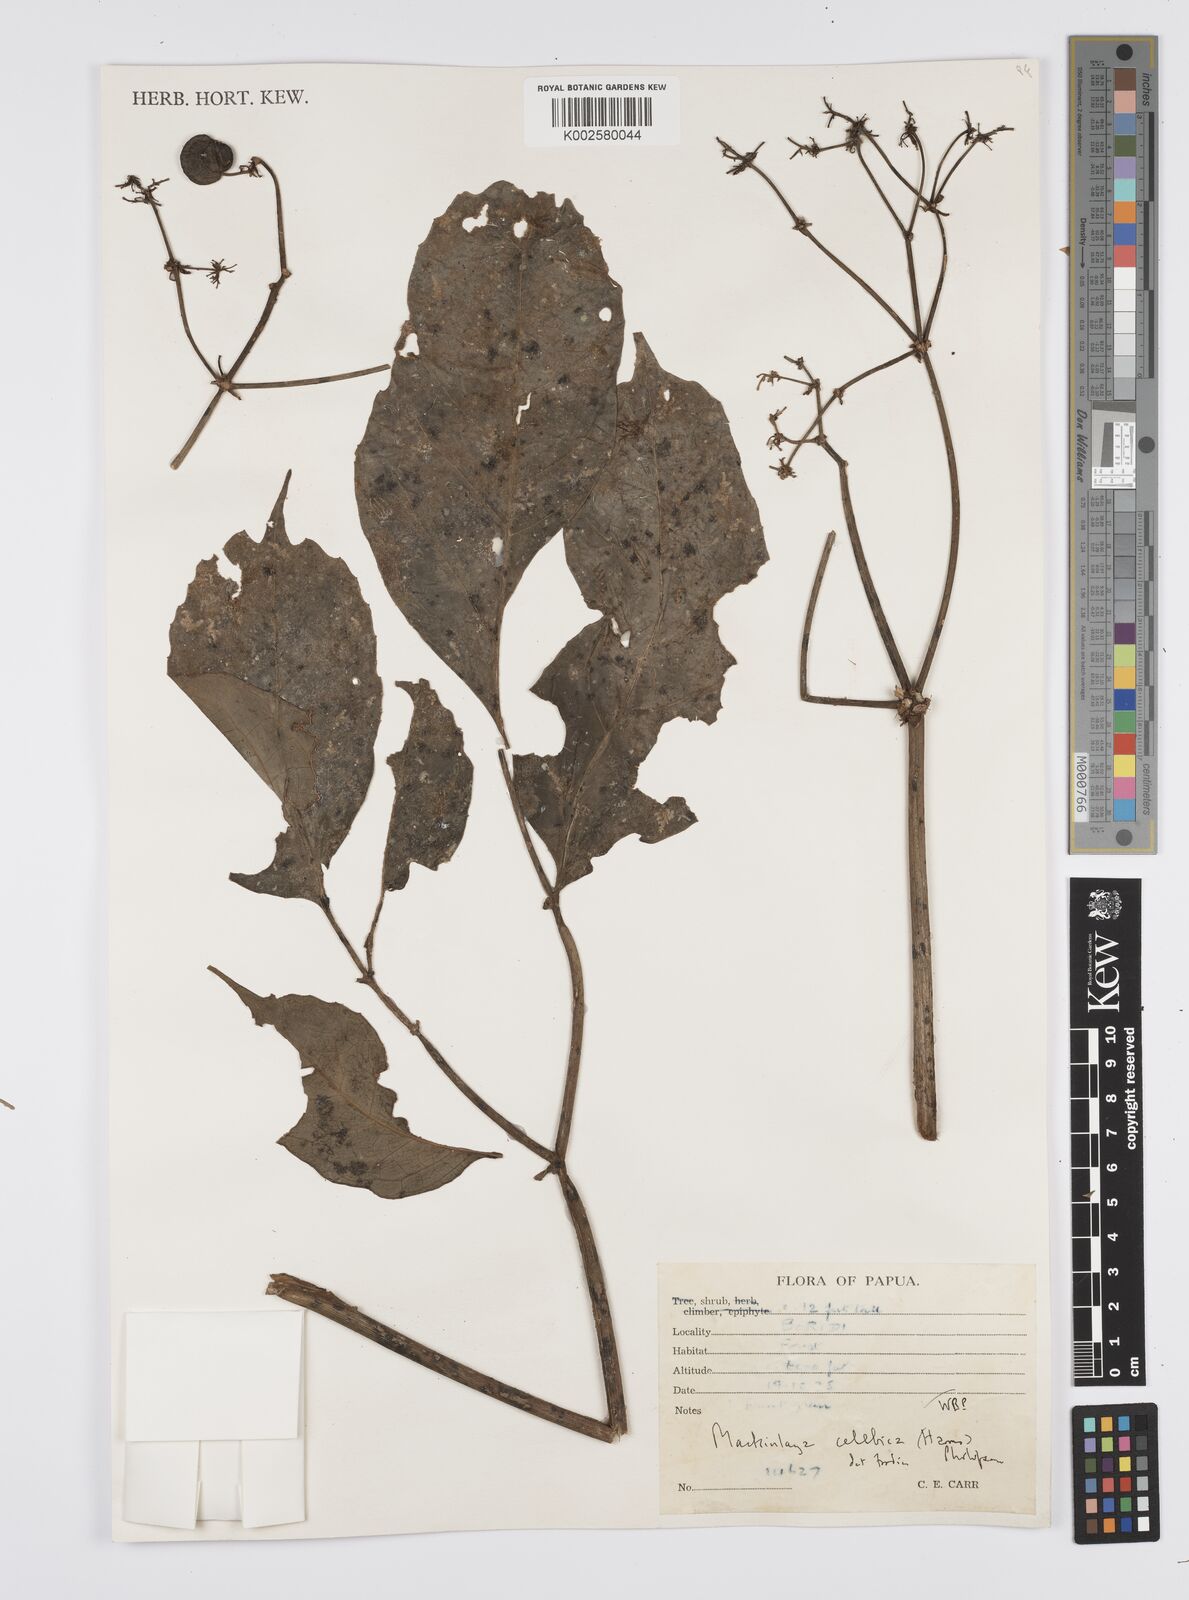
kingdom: Plantae
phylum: Tracheophyta
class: Magnoliopsida
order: Apiales
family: Apiaceae
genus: Mackinlaya
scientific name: Mackinlaya celebica
